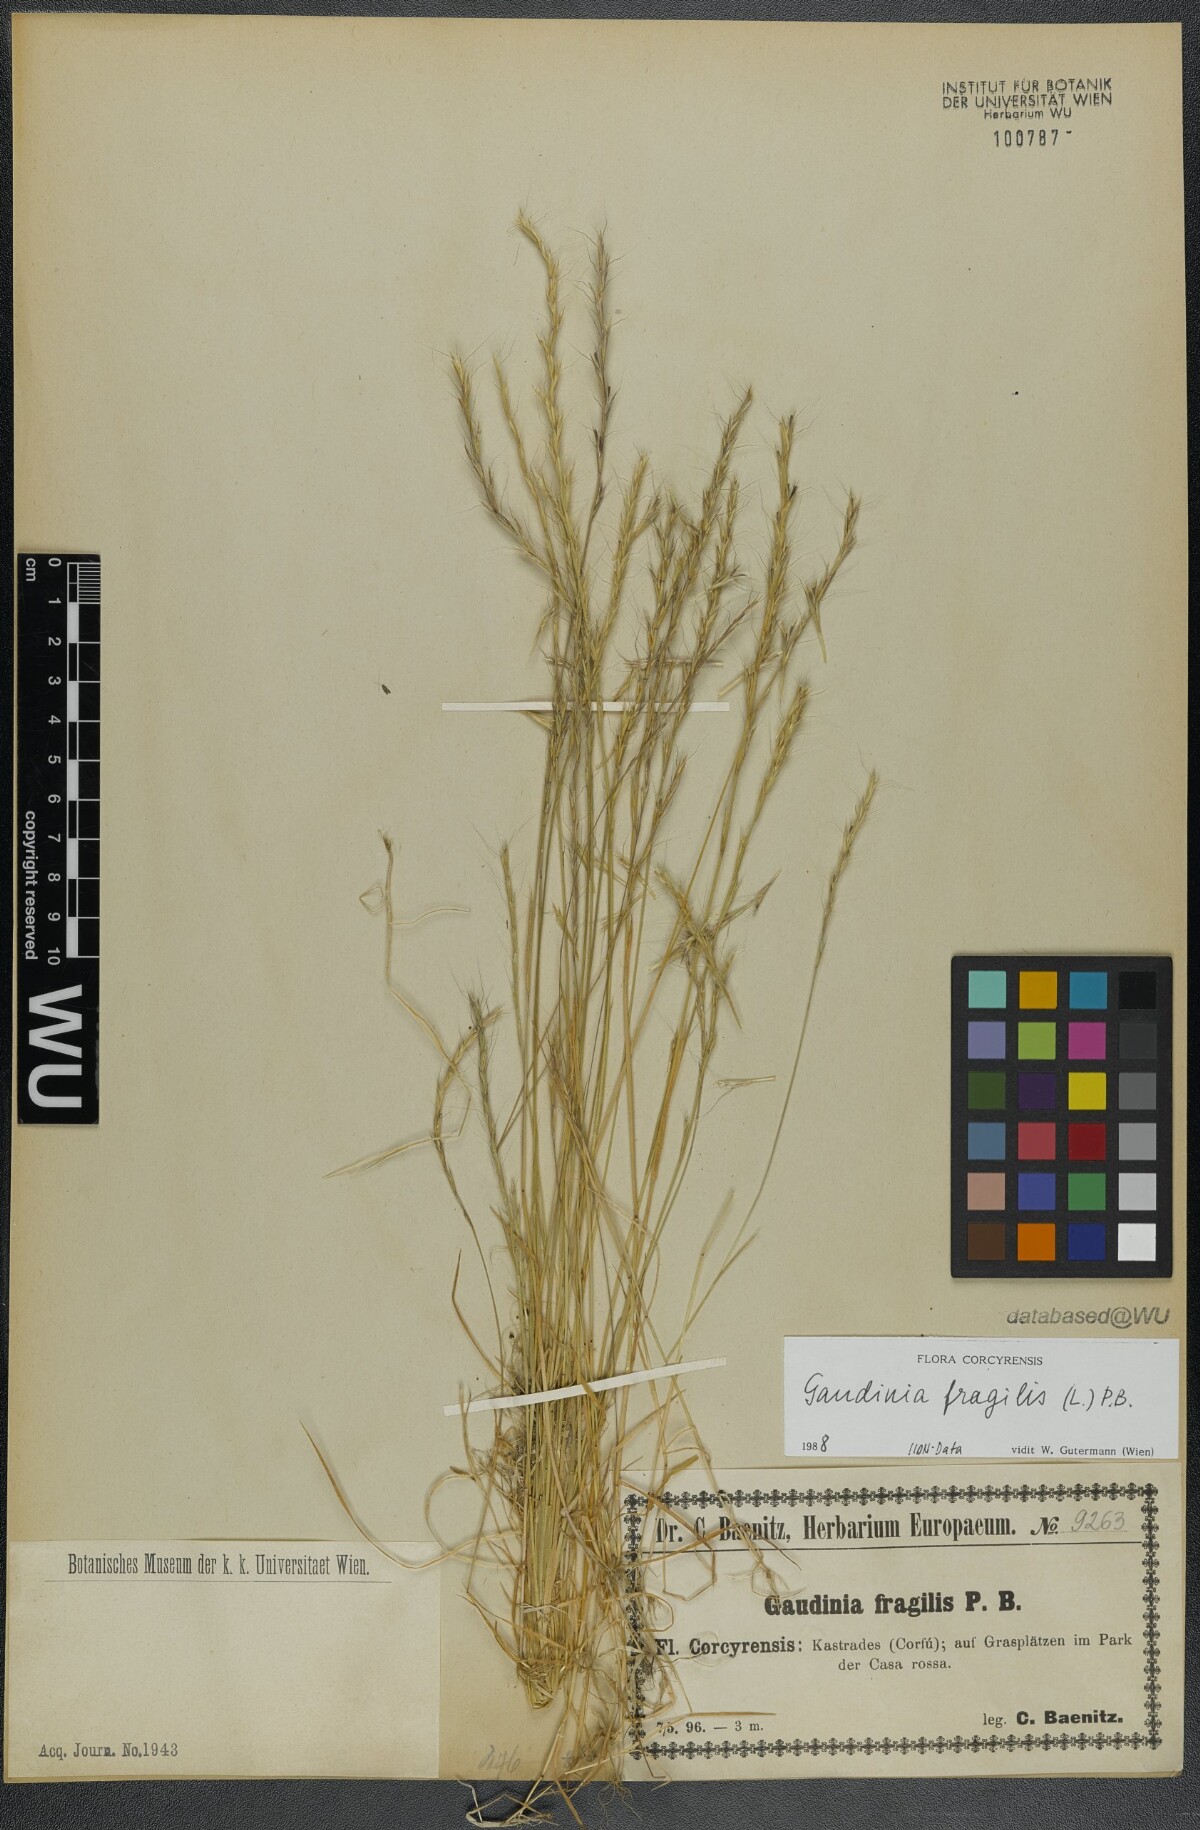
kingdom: Plantae
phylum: Tracheophyta
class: Liliopsida
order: Poales
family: Poaceae
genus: Gaudinia
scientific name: Gaudinia fragilis
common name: French oat-grass
